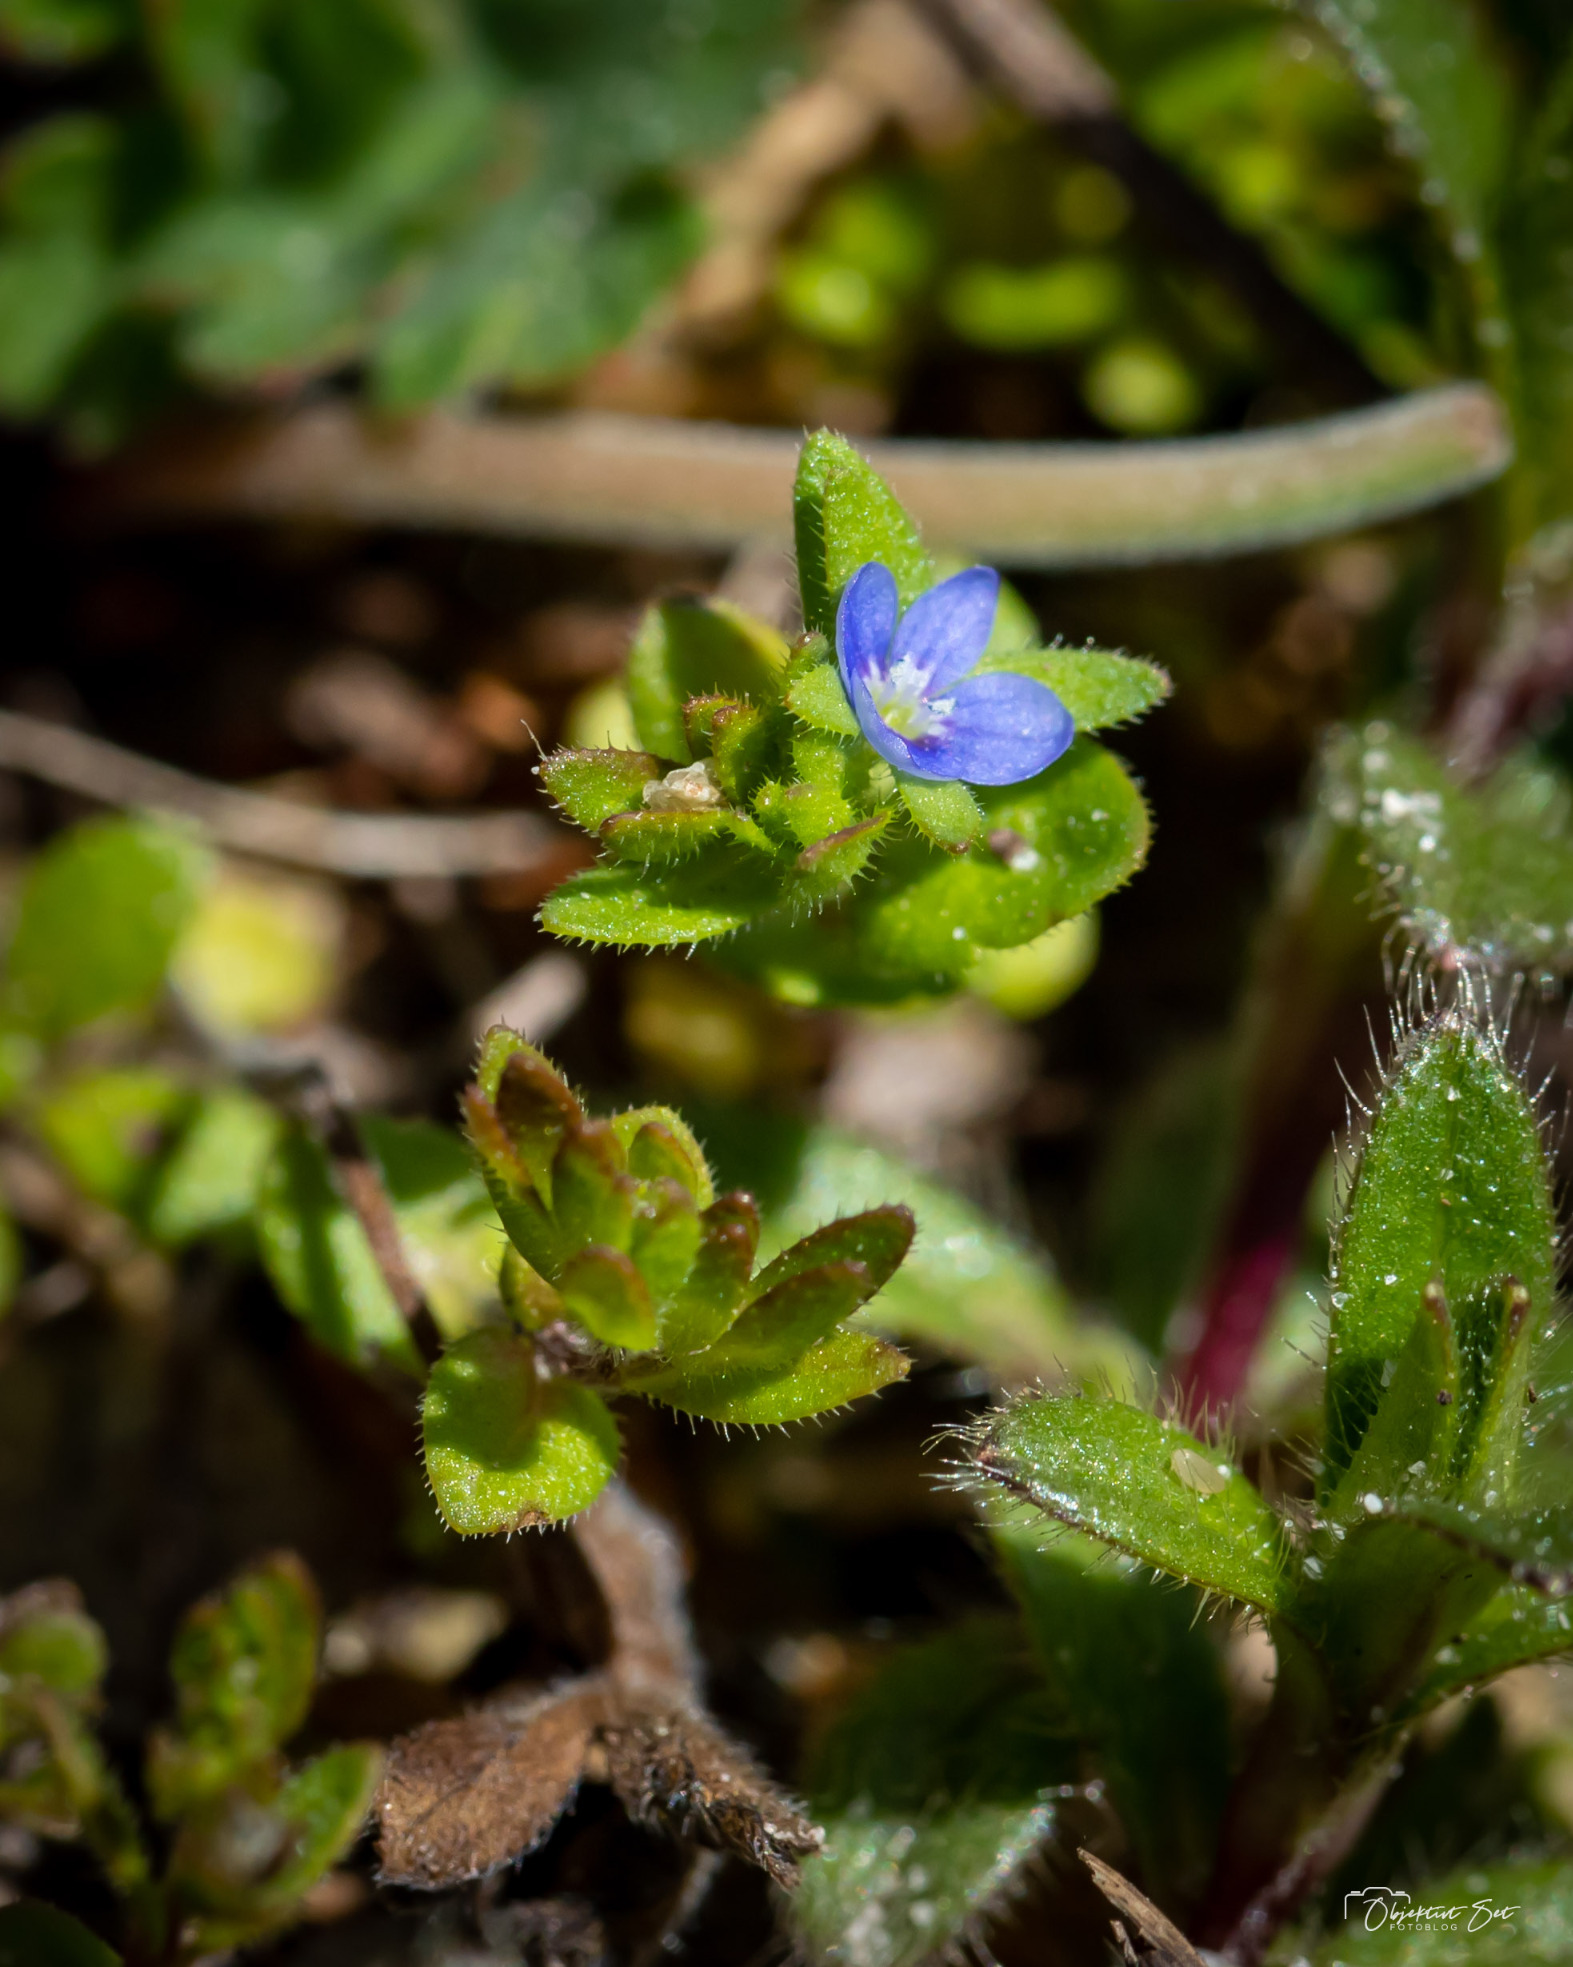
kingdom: Plantae
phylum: Tracheophyta
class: Magnoliopsida
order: Lamiales
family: Plantaginaceae
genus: Veronica
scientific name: Veronica arvensis
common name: Mark-ærenpris
